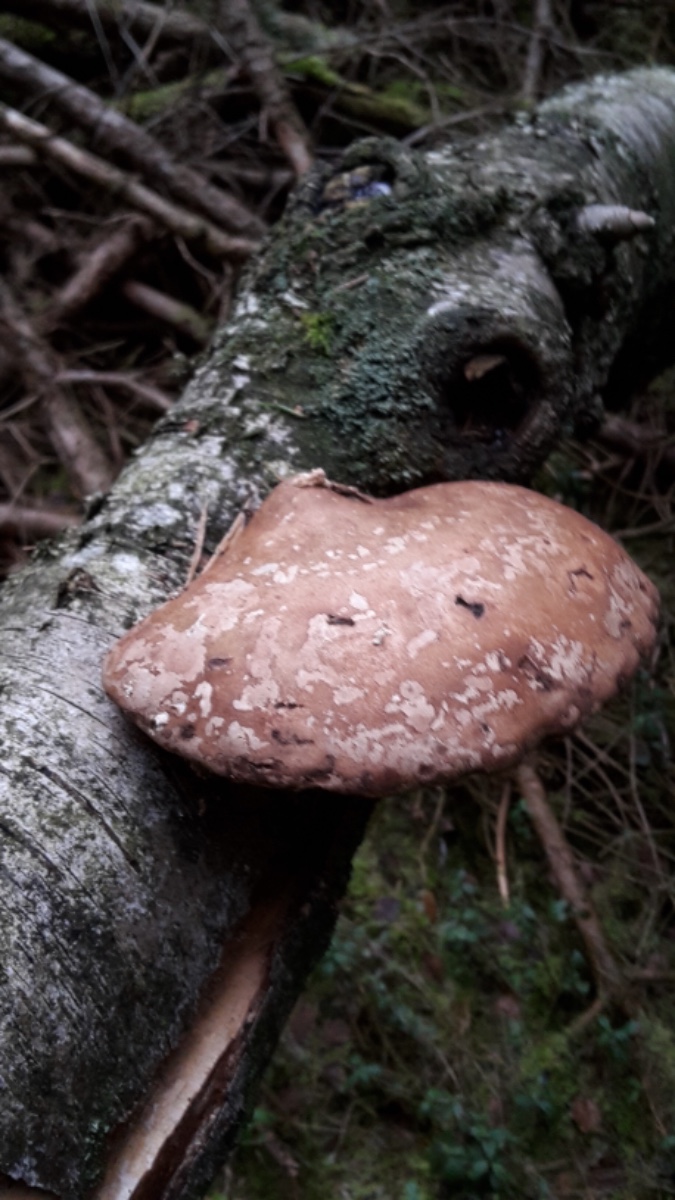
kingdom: Fungi
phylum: Basidiomycota
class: Agaricomycetes
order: Polyporales
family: Fomitopsidaceae
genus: Fomitopsis
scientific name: Fomitopsis betulina
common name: birkeporesvamp
